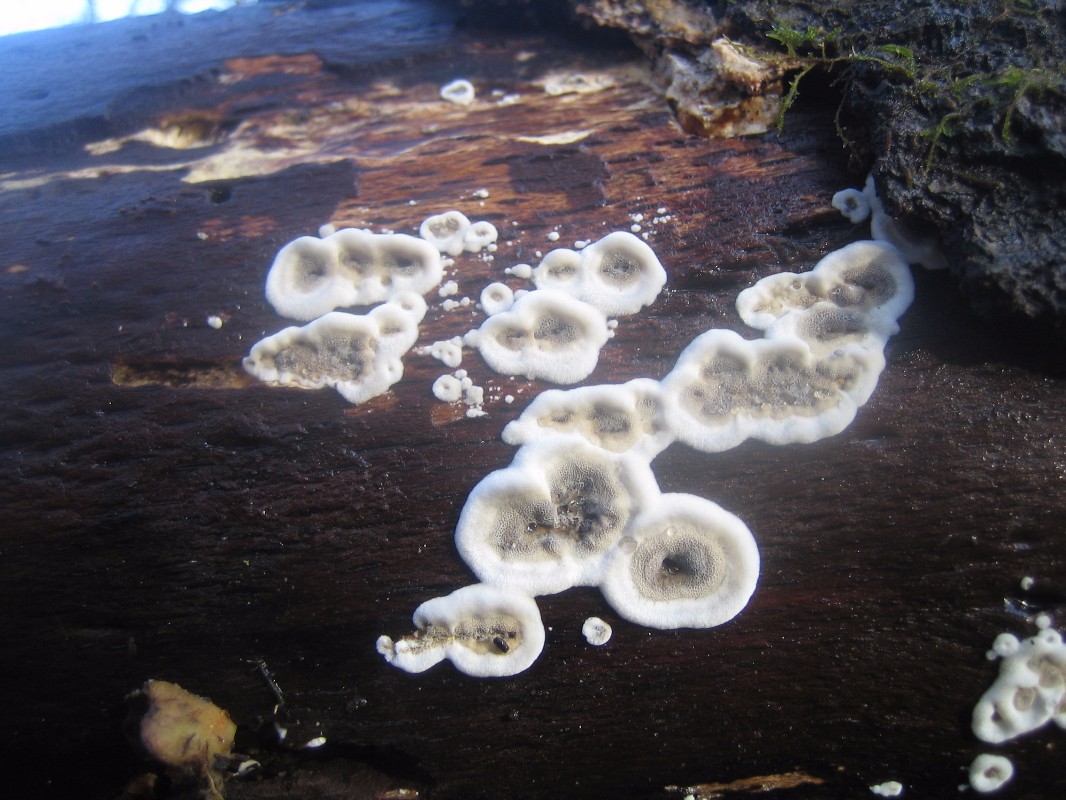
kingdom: Fungi
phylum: Basidiomycota
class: Agaricomycetes
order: Polyporales
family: Phanerochaetaceae
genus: Bjerkandera
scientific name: Bjerkandera adusta
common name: sveden sodporesvamp
